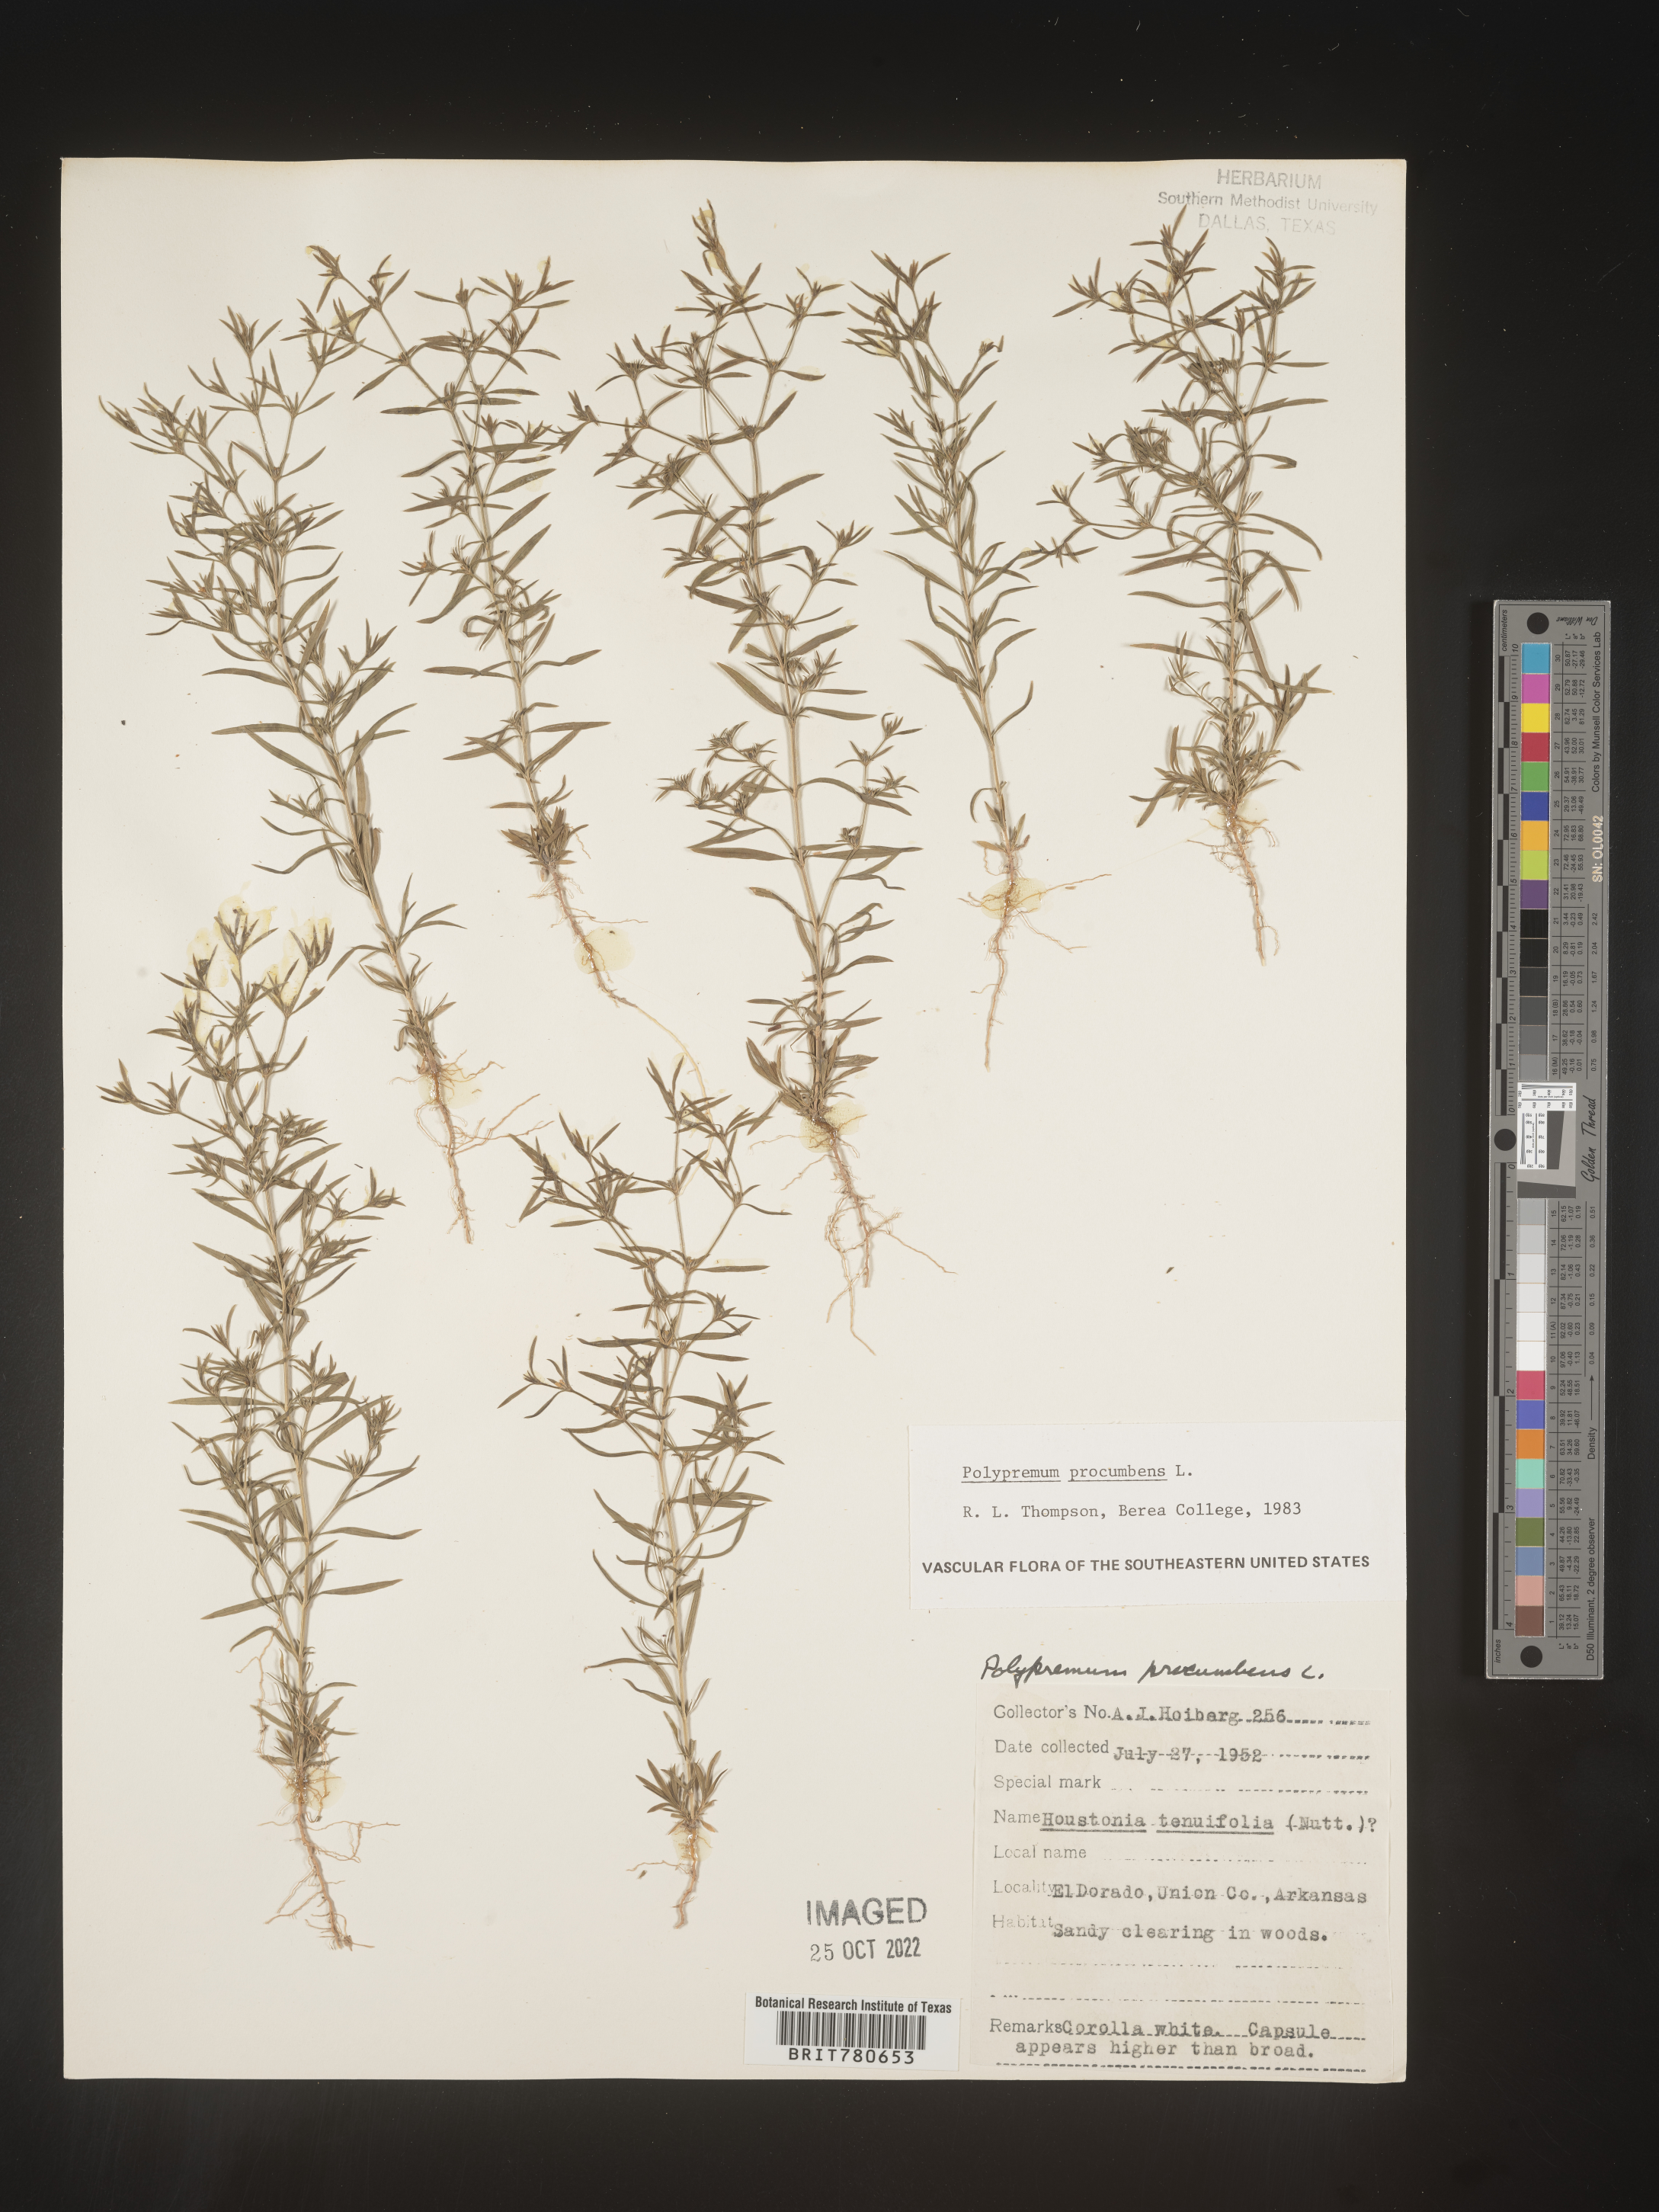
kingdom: Plantae
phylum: Tracheophyta
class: Magnoliopsida
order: Lamiales
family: Tetrachondraceae
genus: Polypremum
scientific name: Polypremum procumbens
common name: Juniper-leaf
